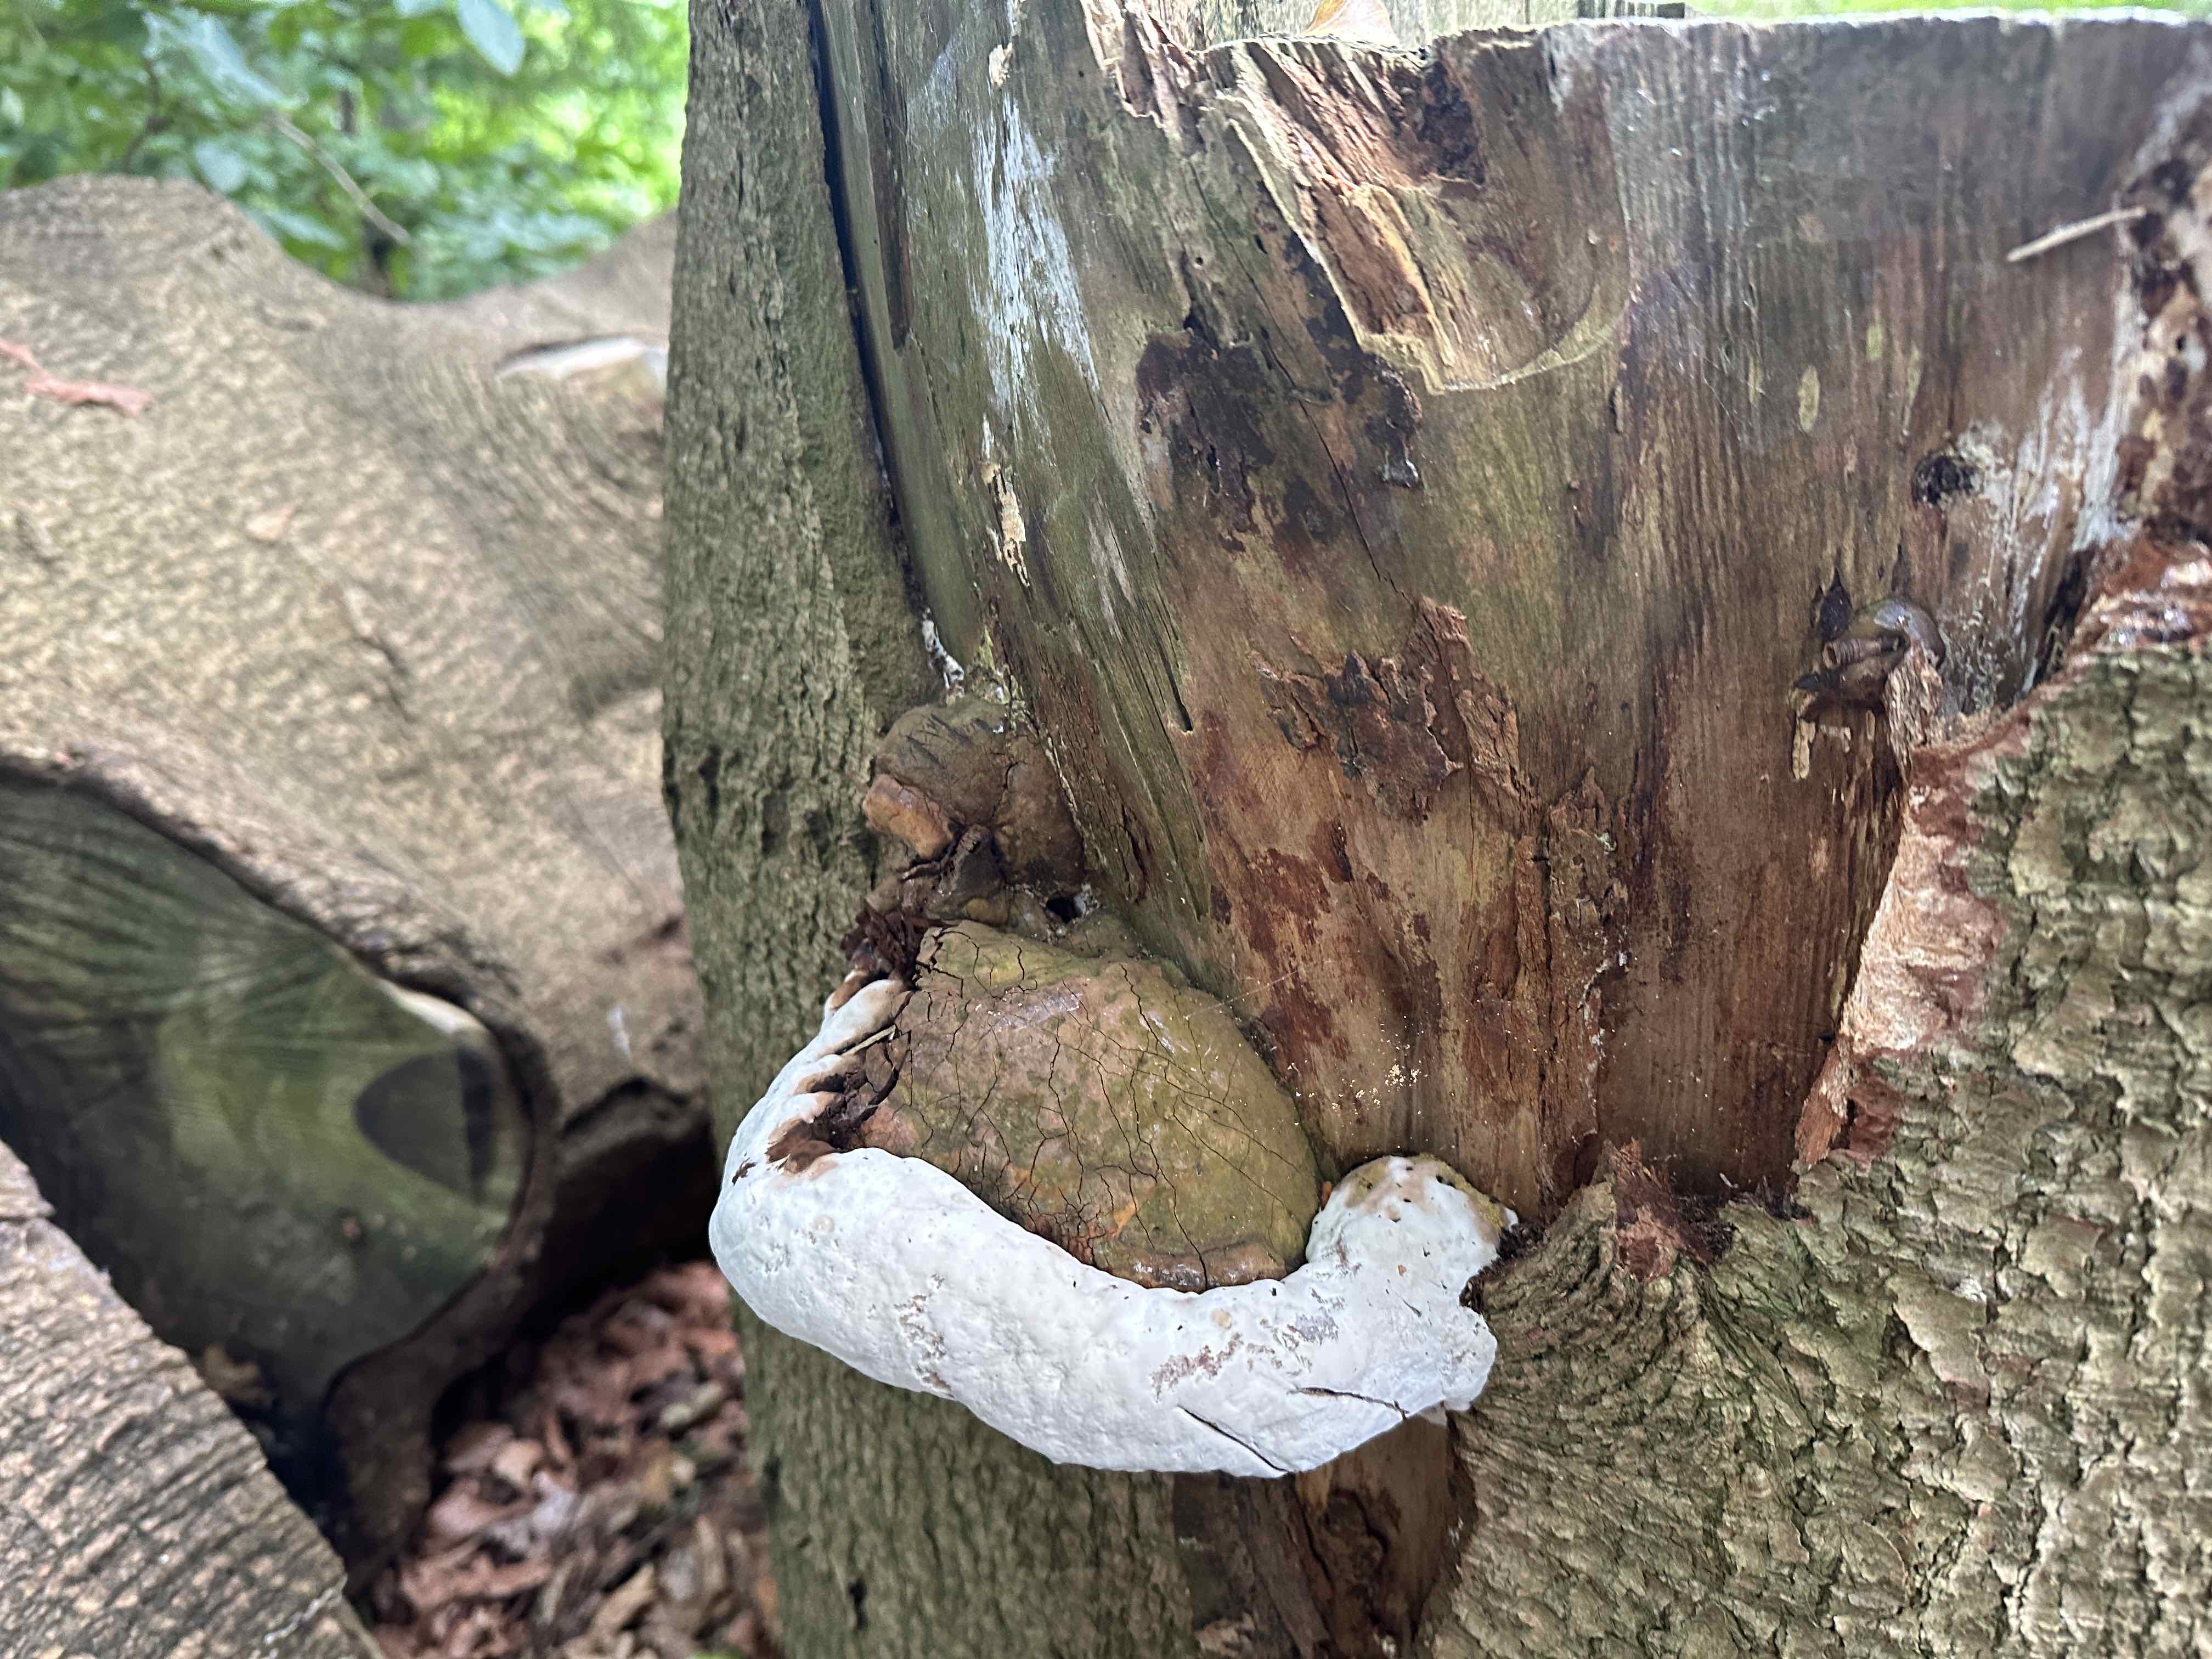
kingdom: Fungi
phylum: Basidiomycota
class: Agaricomycetes
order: Polyporales
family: Polyporaceae
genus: Ganoderma
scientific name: Ganoderma applanatum
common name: flad lakporesvamp
